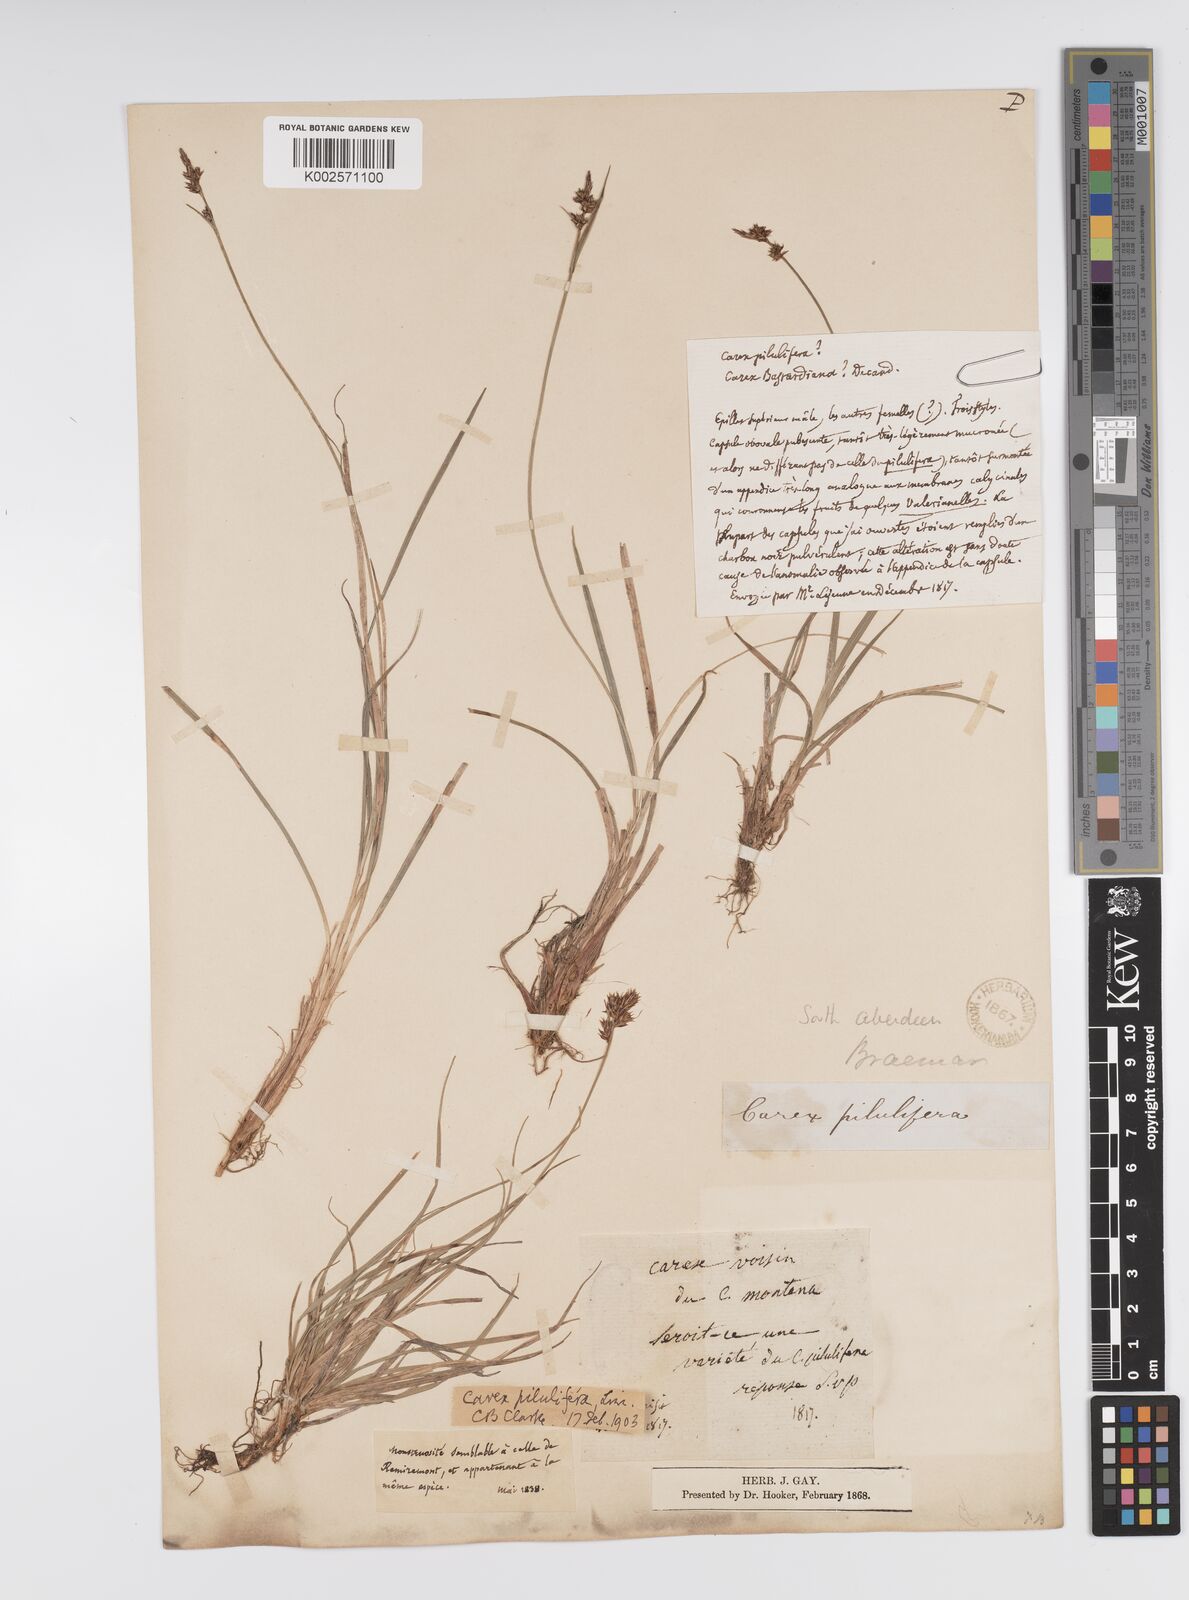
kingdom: Plantae
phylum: Tracheophyta
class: Liliopsida
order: Poales
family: Cyperaceae
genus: Carex
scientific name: Carex pilulifera
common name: Pill sedge
